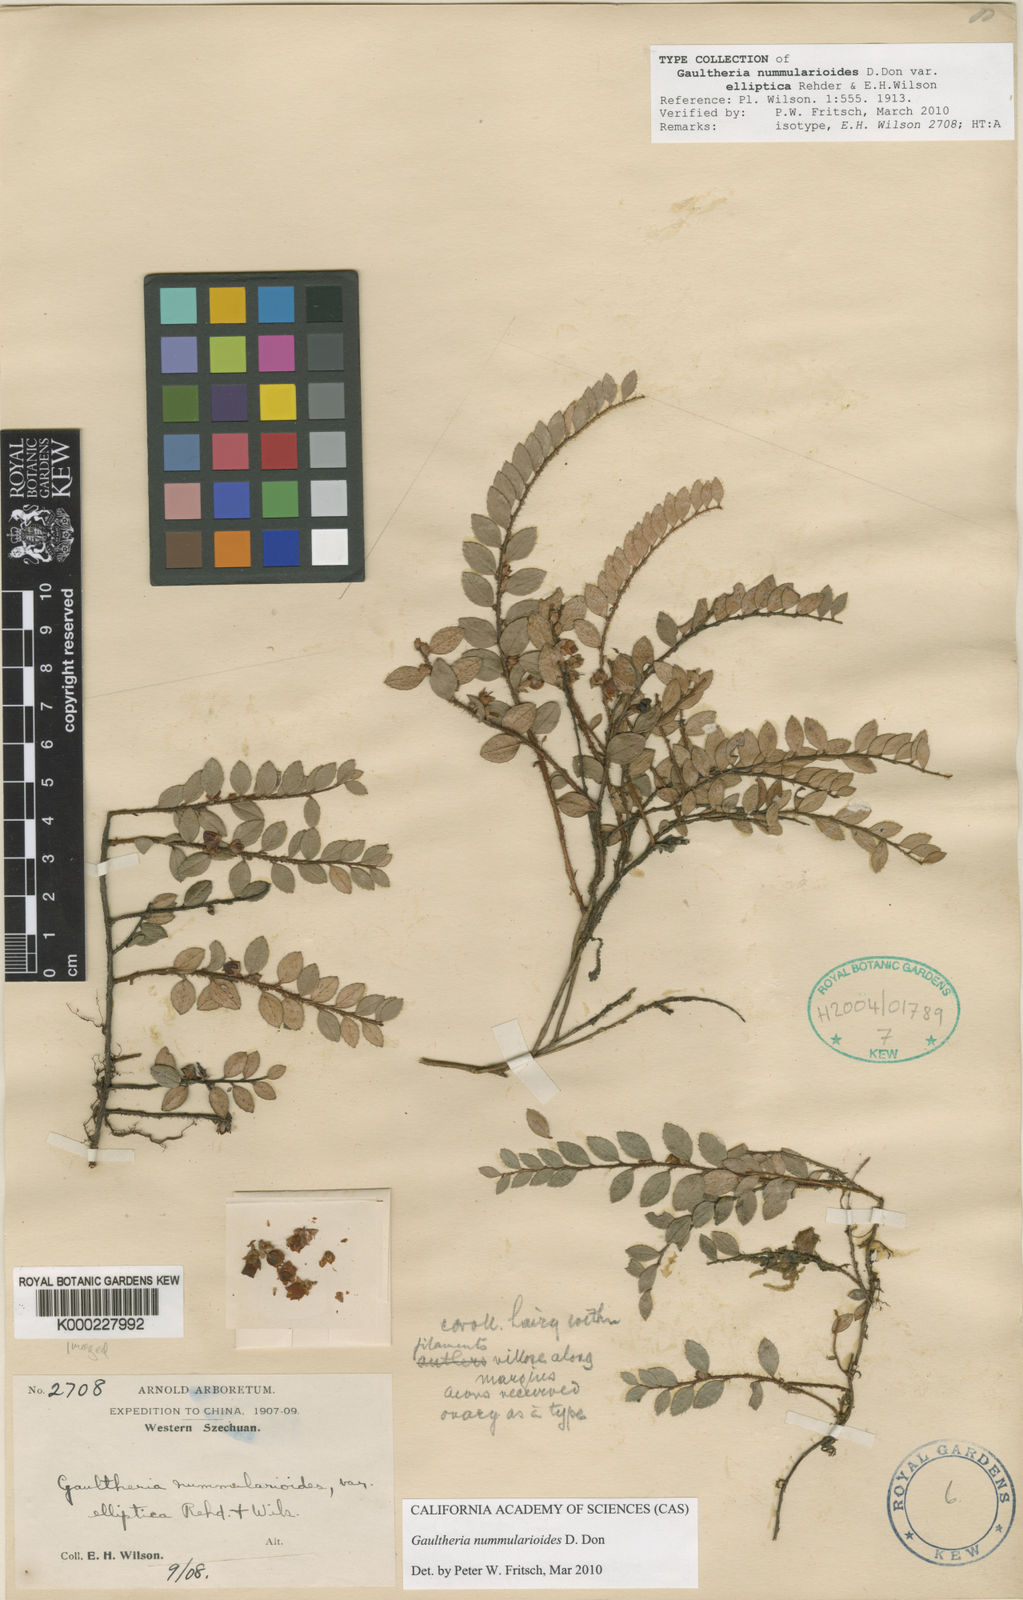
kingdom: Plantae
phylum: Tracheophyta
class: Magnoliopsida
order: Ericales
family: Ericaceae
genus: Gaultheria
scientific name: Gaultheria nummularioides
